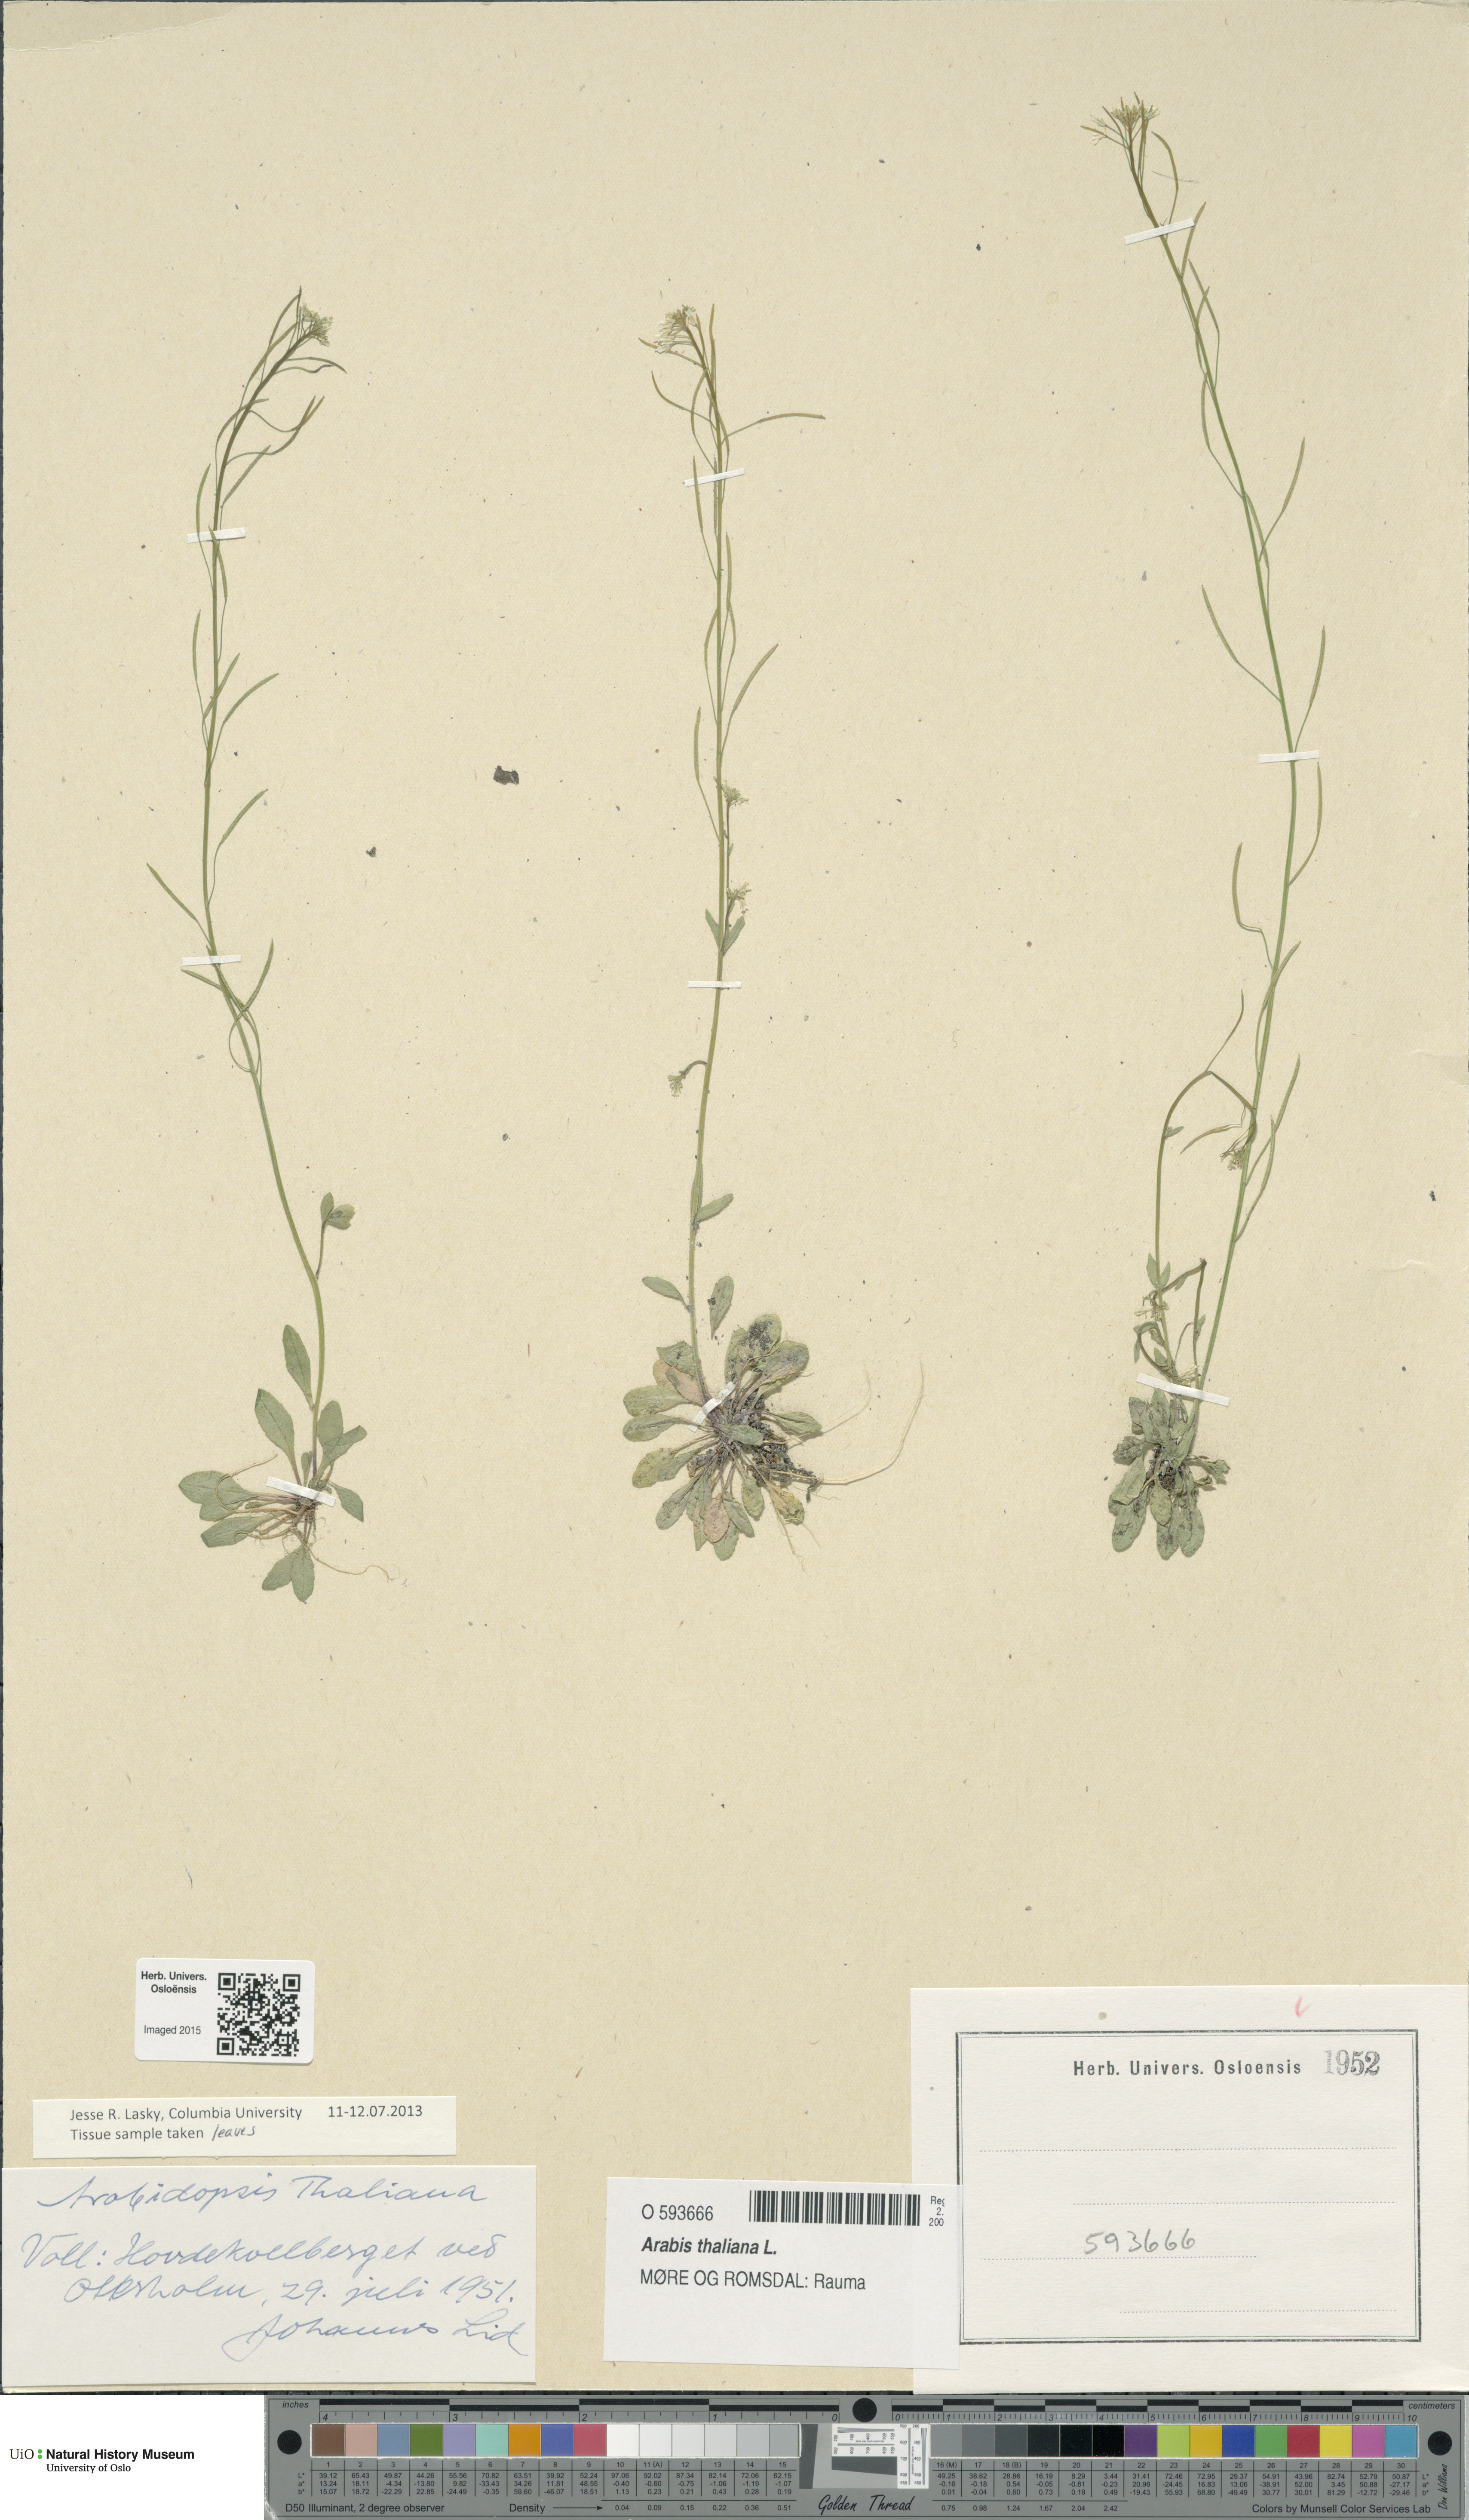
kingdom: Plantae
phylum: Tracheophyta
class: Magnoliopsida
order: Brassicales
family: Brassicaceae
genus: Arabidopsis
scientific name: Arabidopsis thaliana
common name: Thale cress
